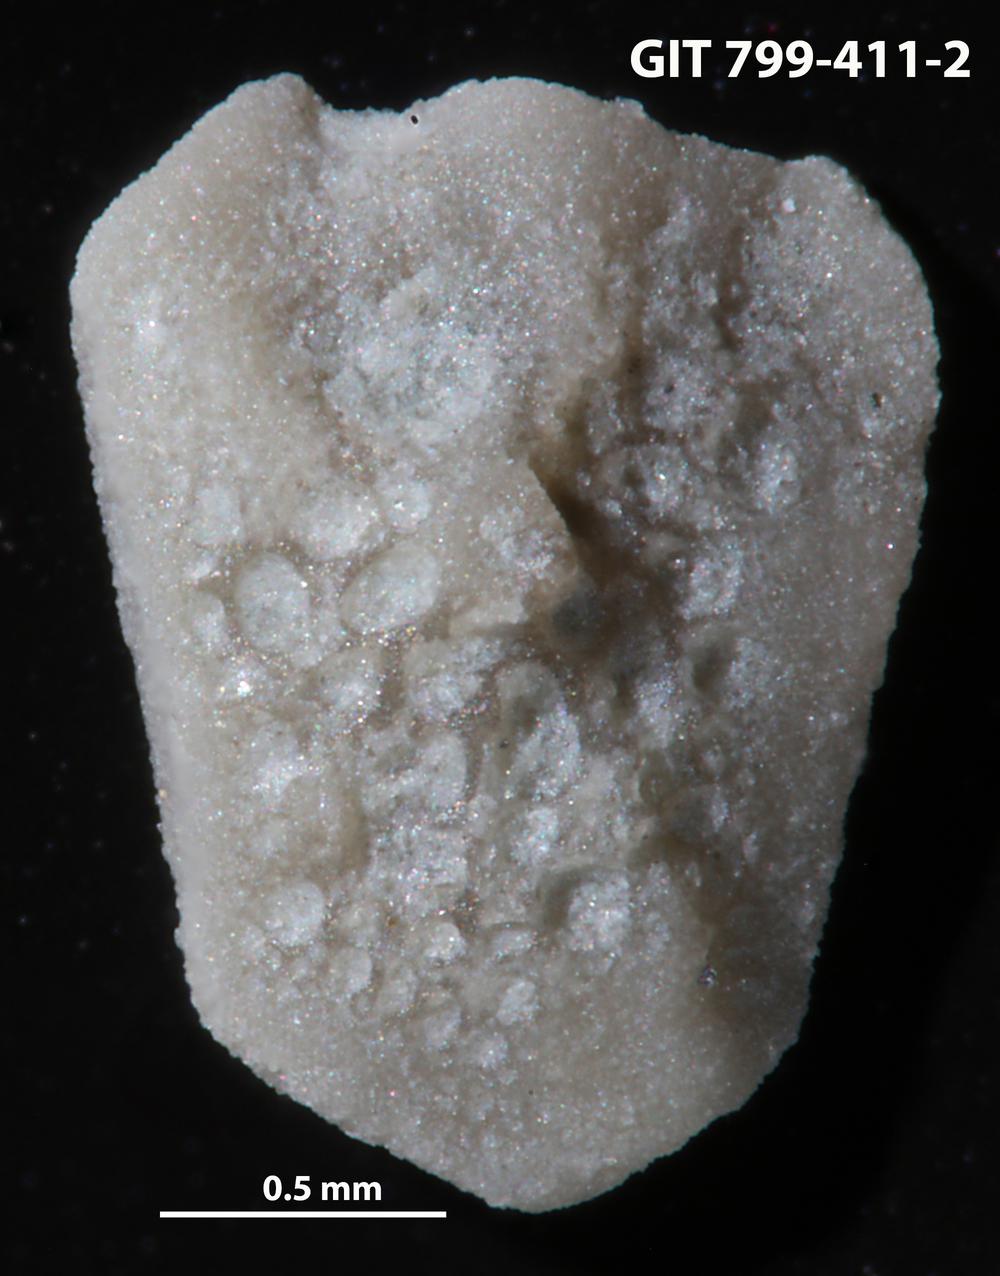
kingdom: Animalia
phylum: Echinodermata
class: Echinoidea
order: Bothriocidaroida
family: Bothriocidaridae
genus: Neobothriocidaris
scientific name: Neobothriocidaris
